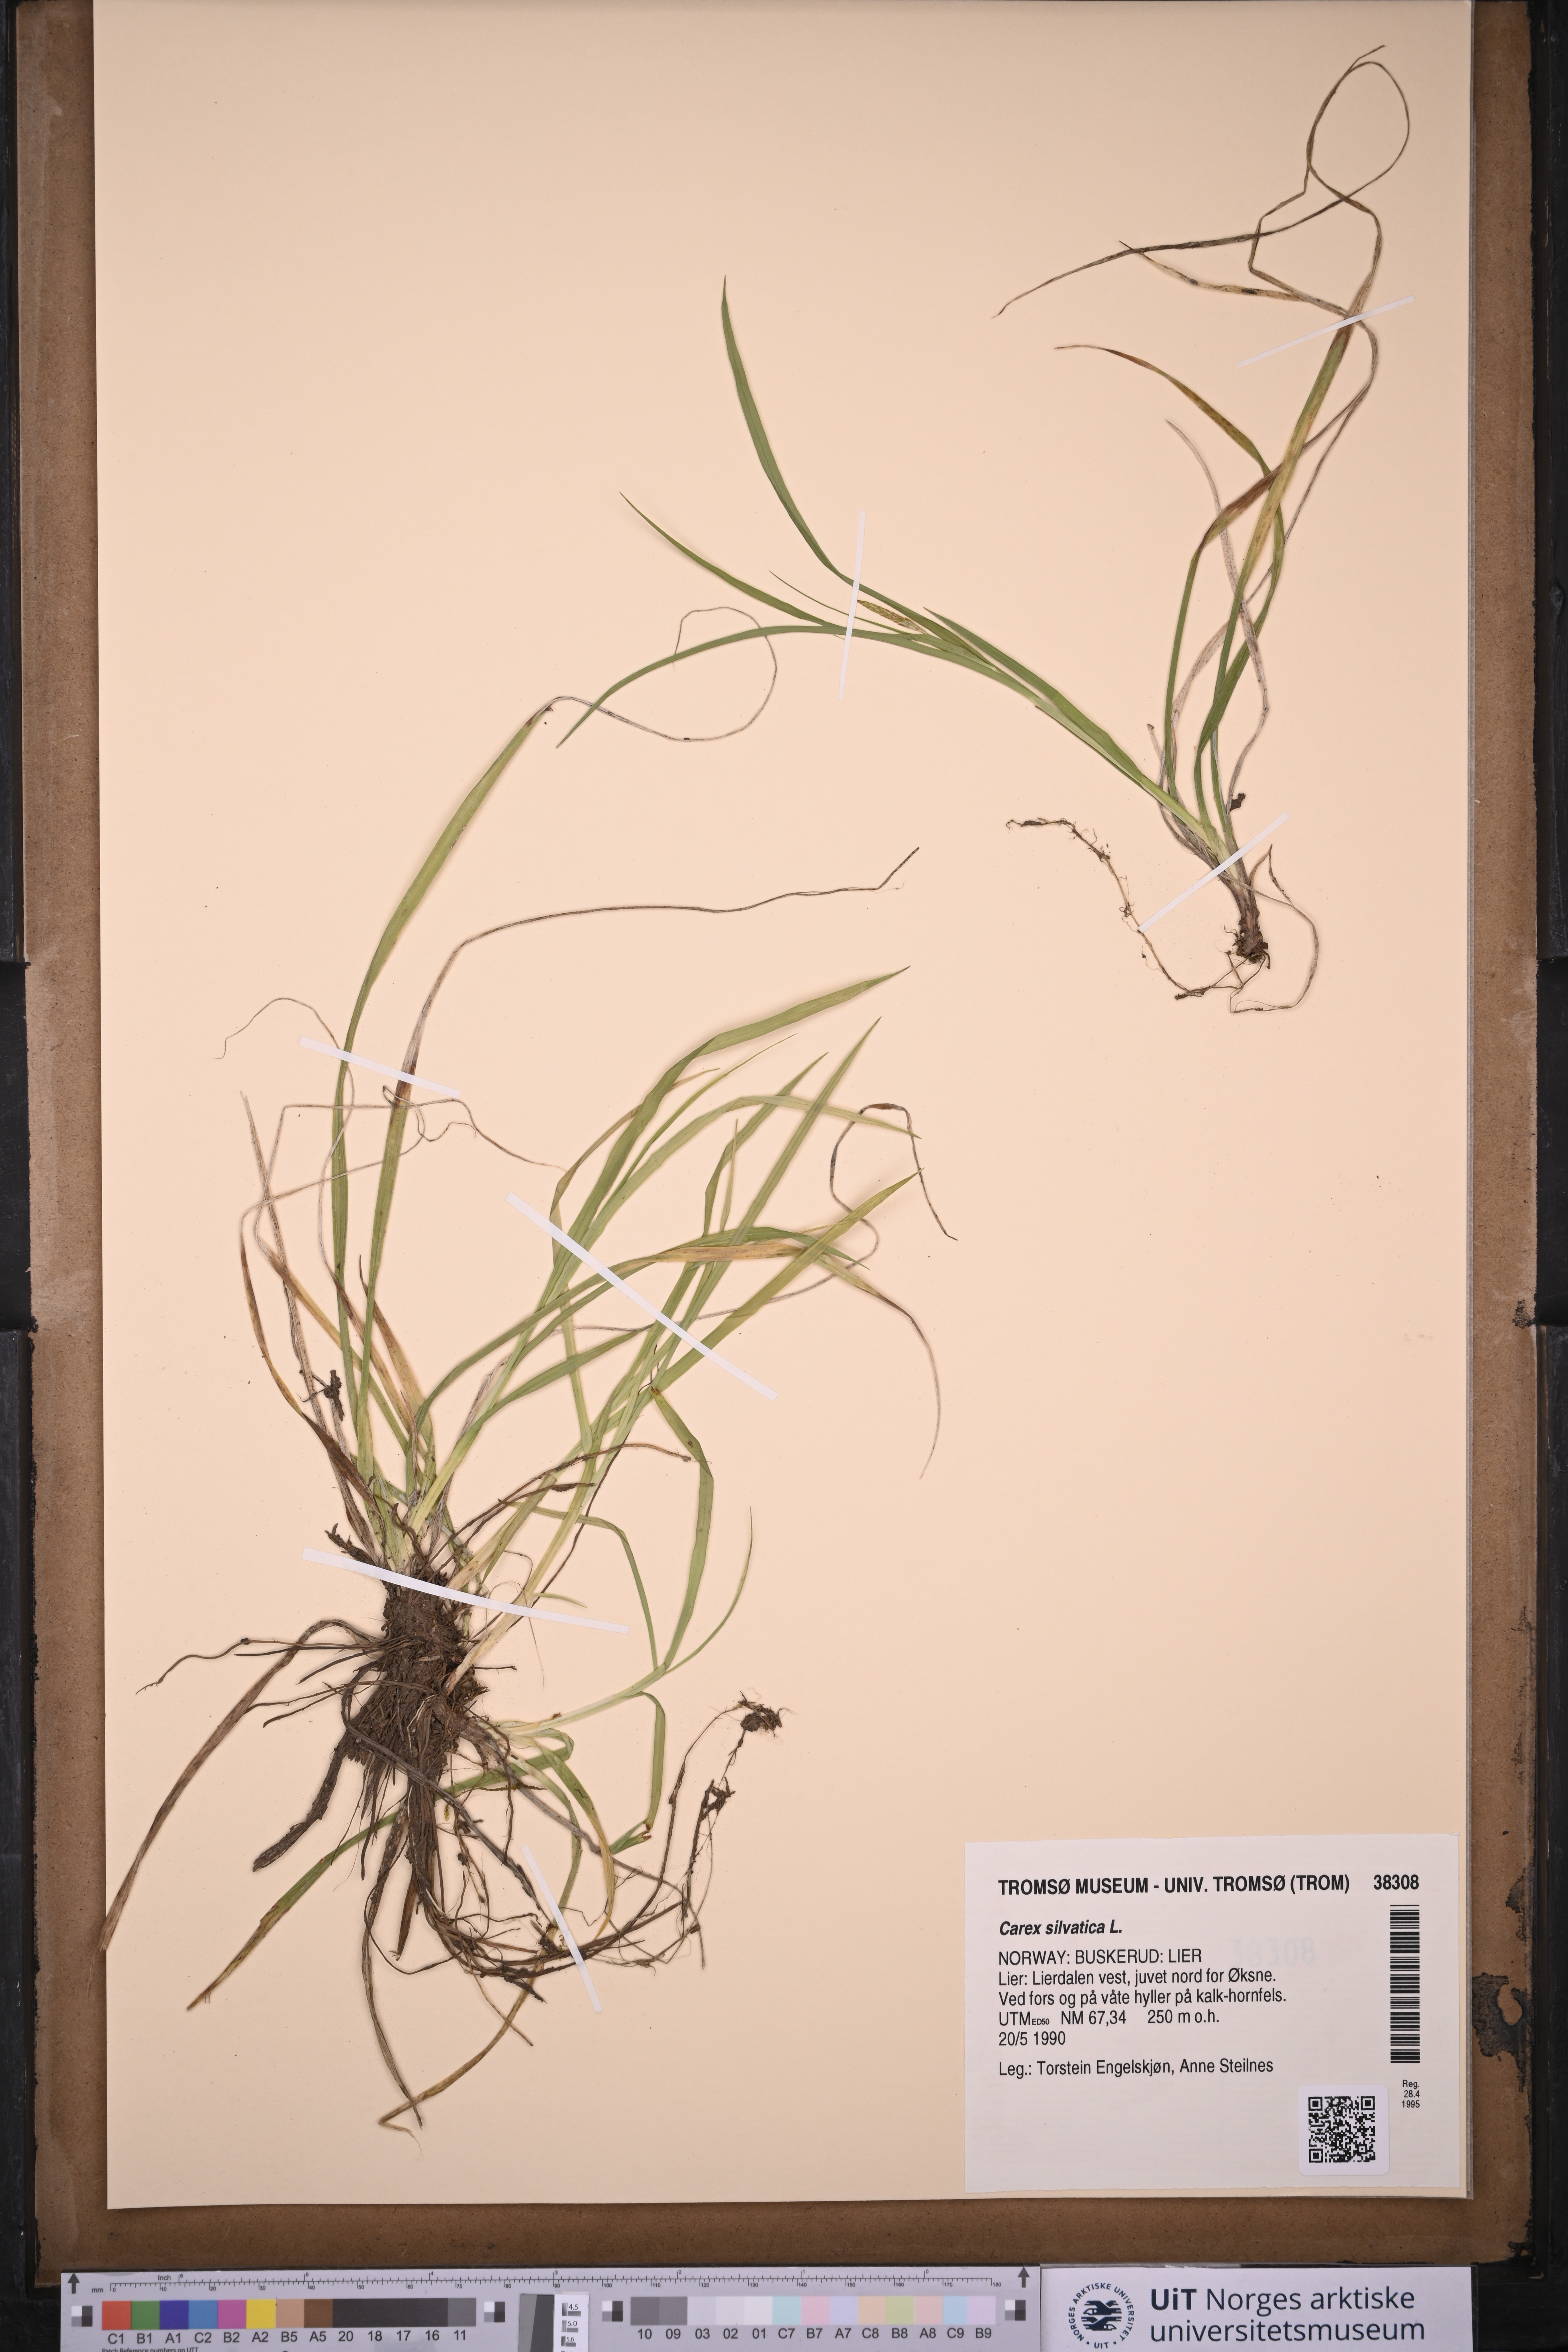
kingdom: Plantae
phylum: Tracheophyta
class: Liliopsida
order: Poales
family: Cyperaceae
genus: Carex
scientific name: Carex sylvatica
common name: Wood-sedge
